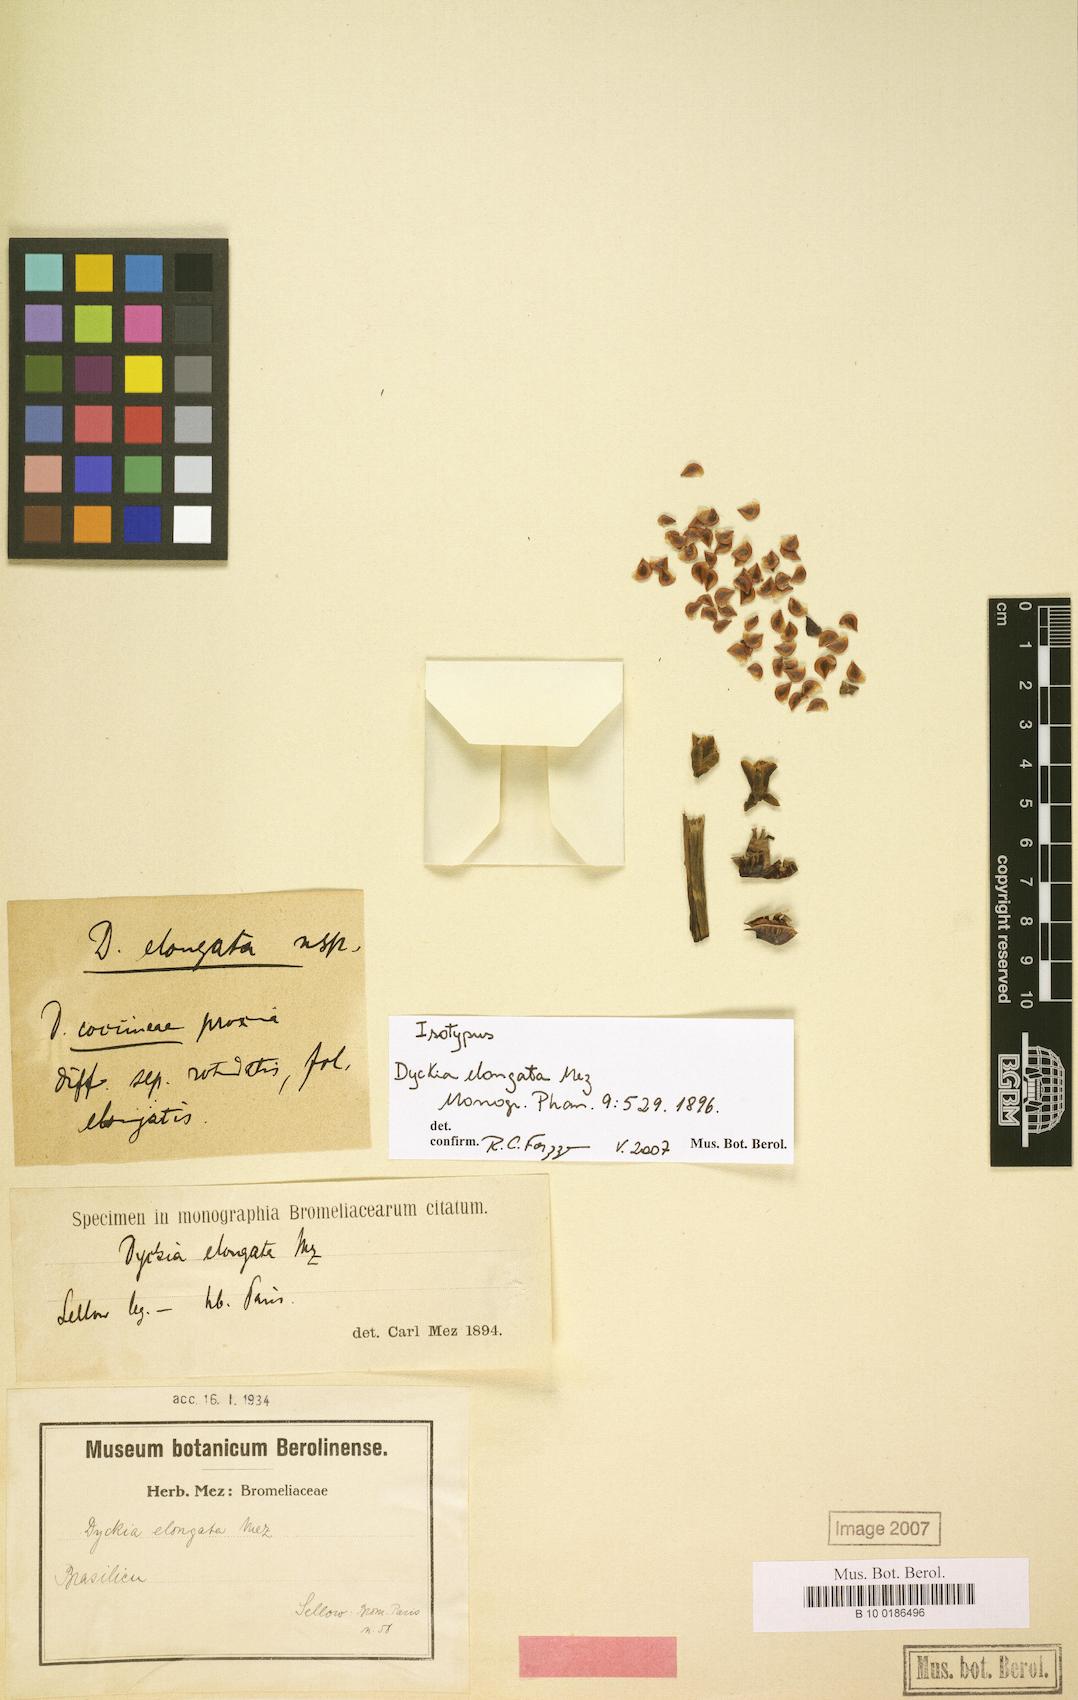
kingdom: Plantae
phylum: Tracheophyta
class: Liliopsida
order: Poales
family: Bromeliaceae
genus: Dyckia
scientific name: Dyckia elongata
